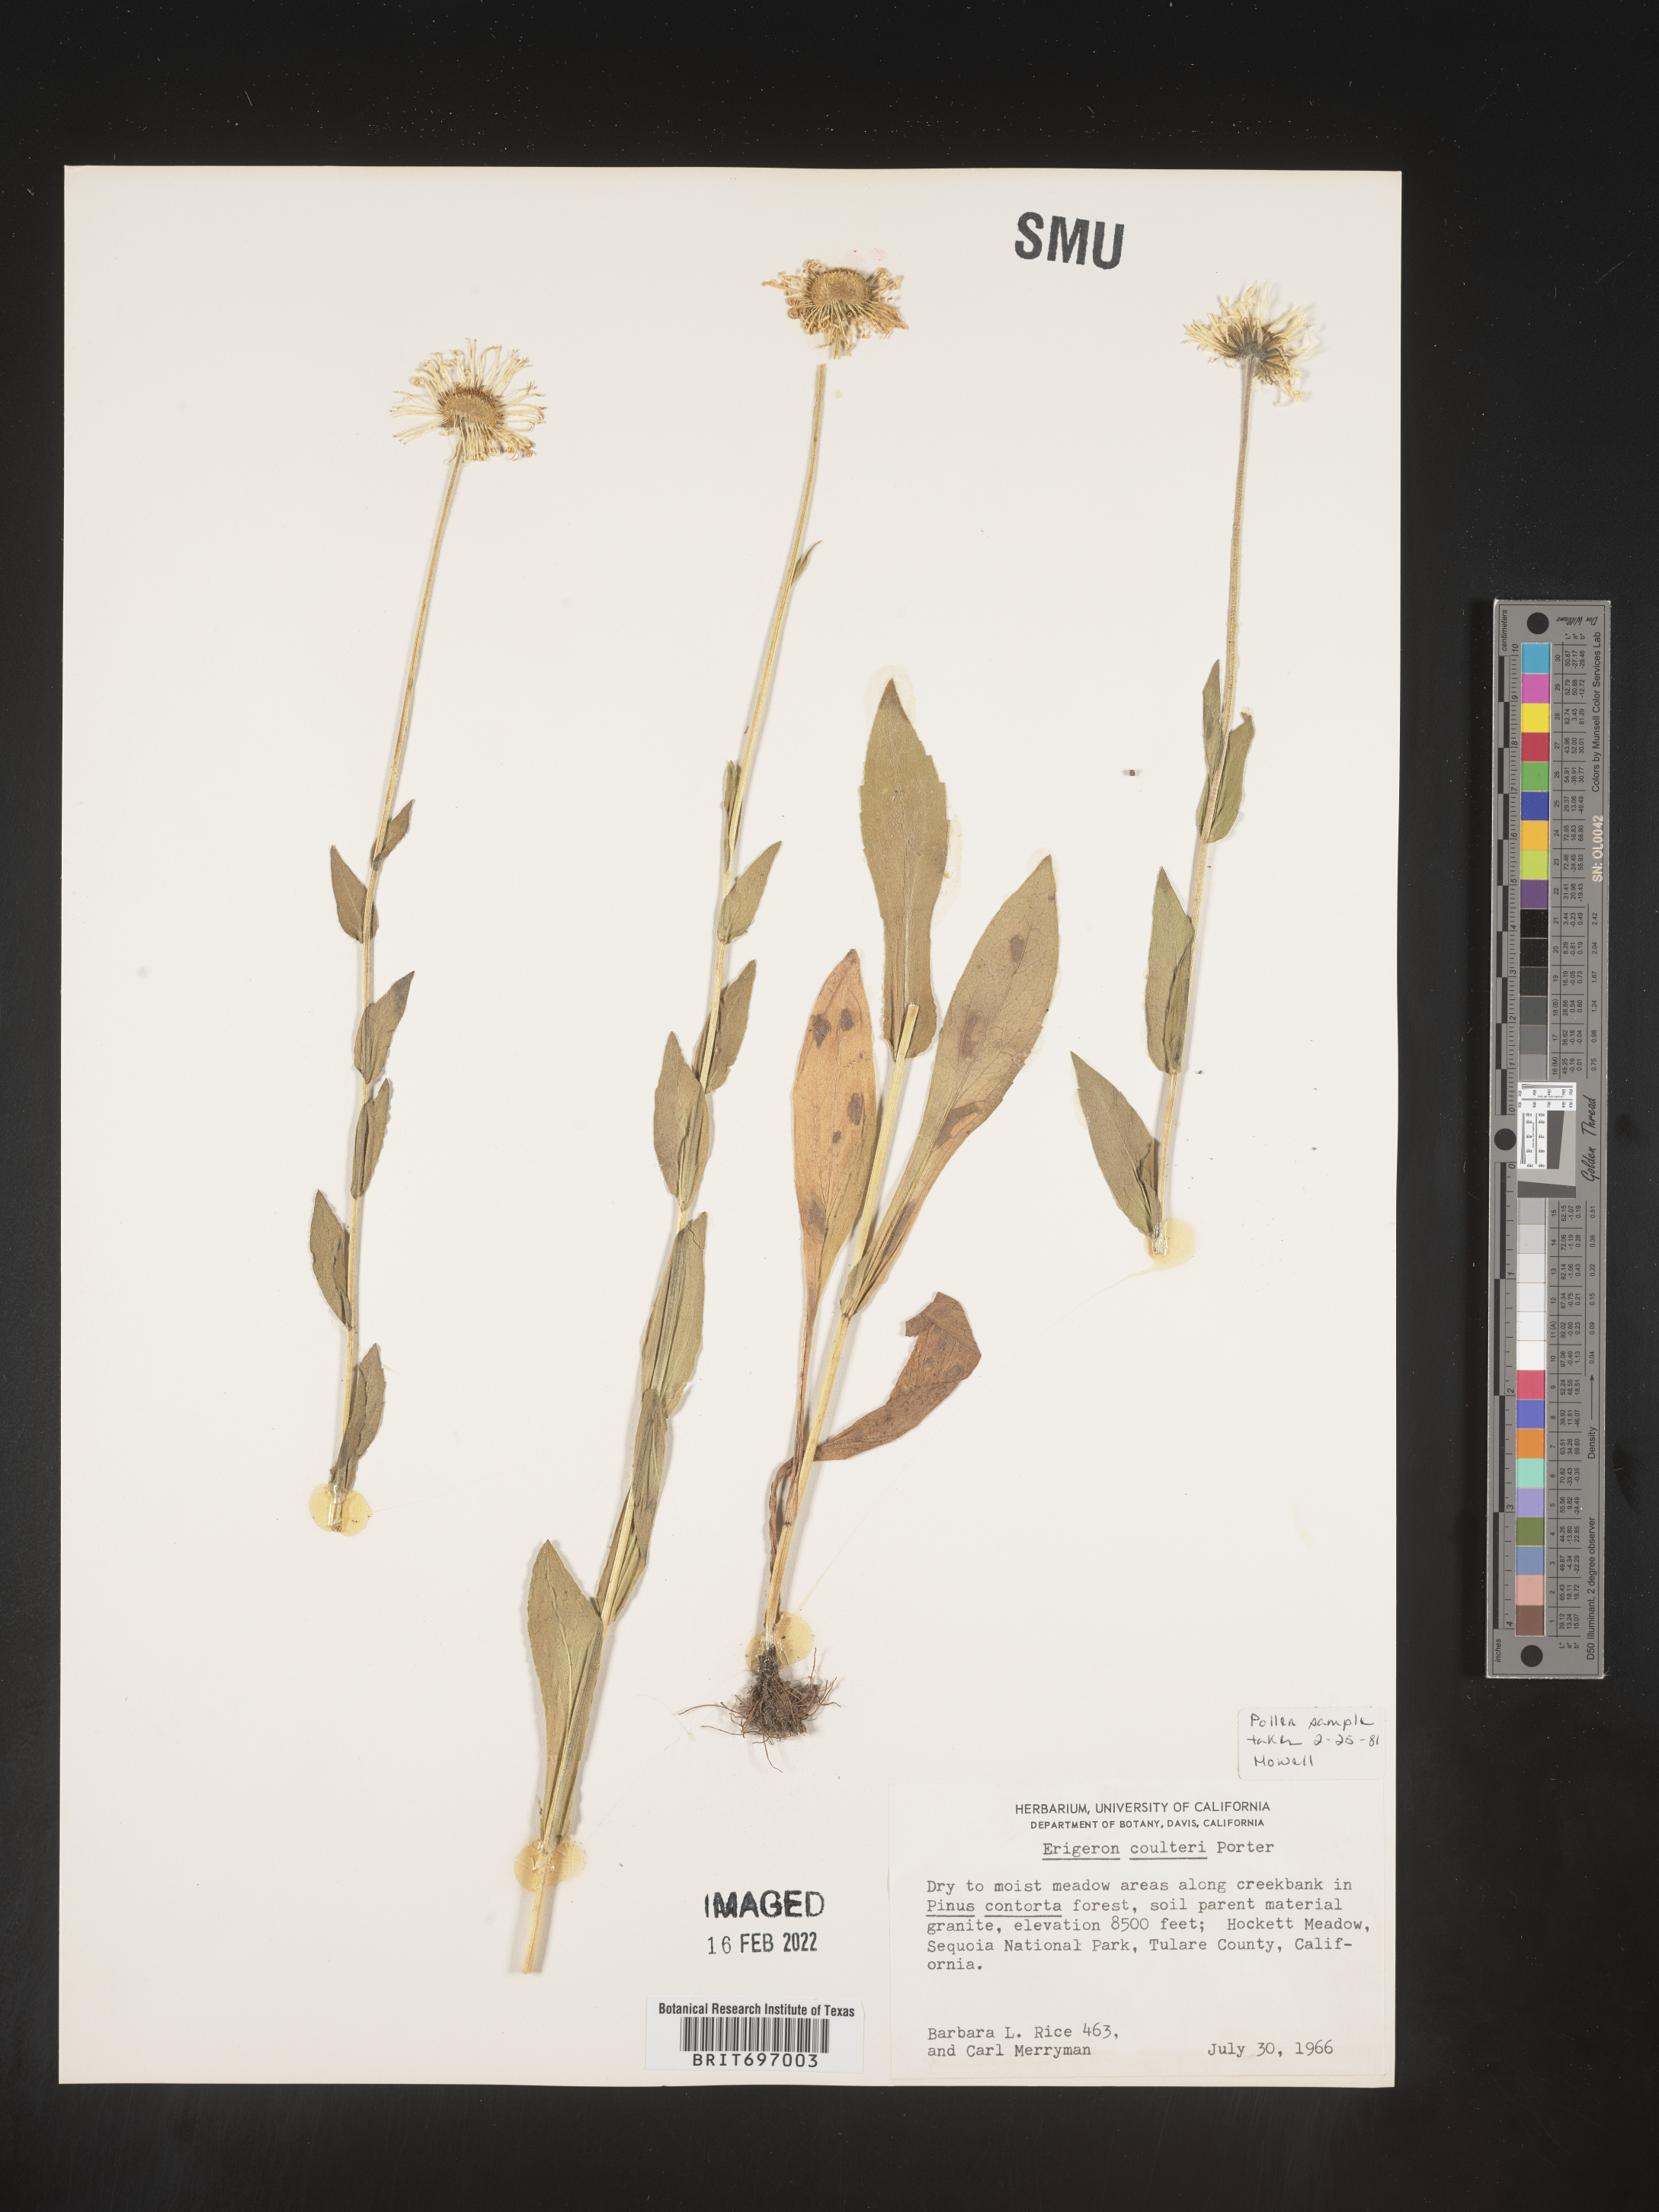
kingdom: Plantae
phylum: Tracheophyta
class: Magnoliopsida
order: Asterales
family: Asteraceae
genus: Erigeron
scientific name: Erigeron coulteri
